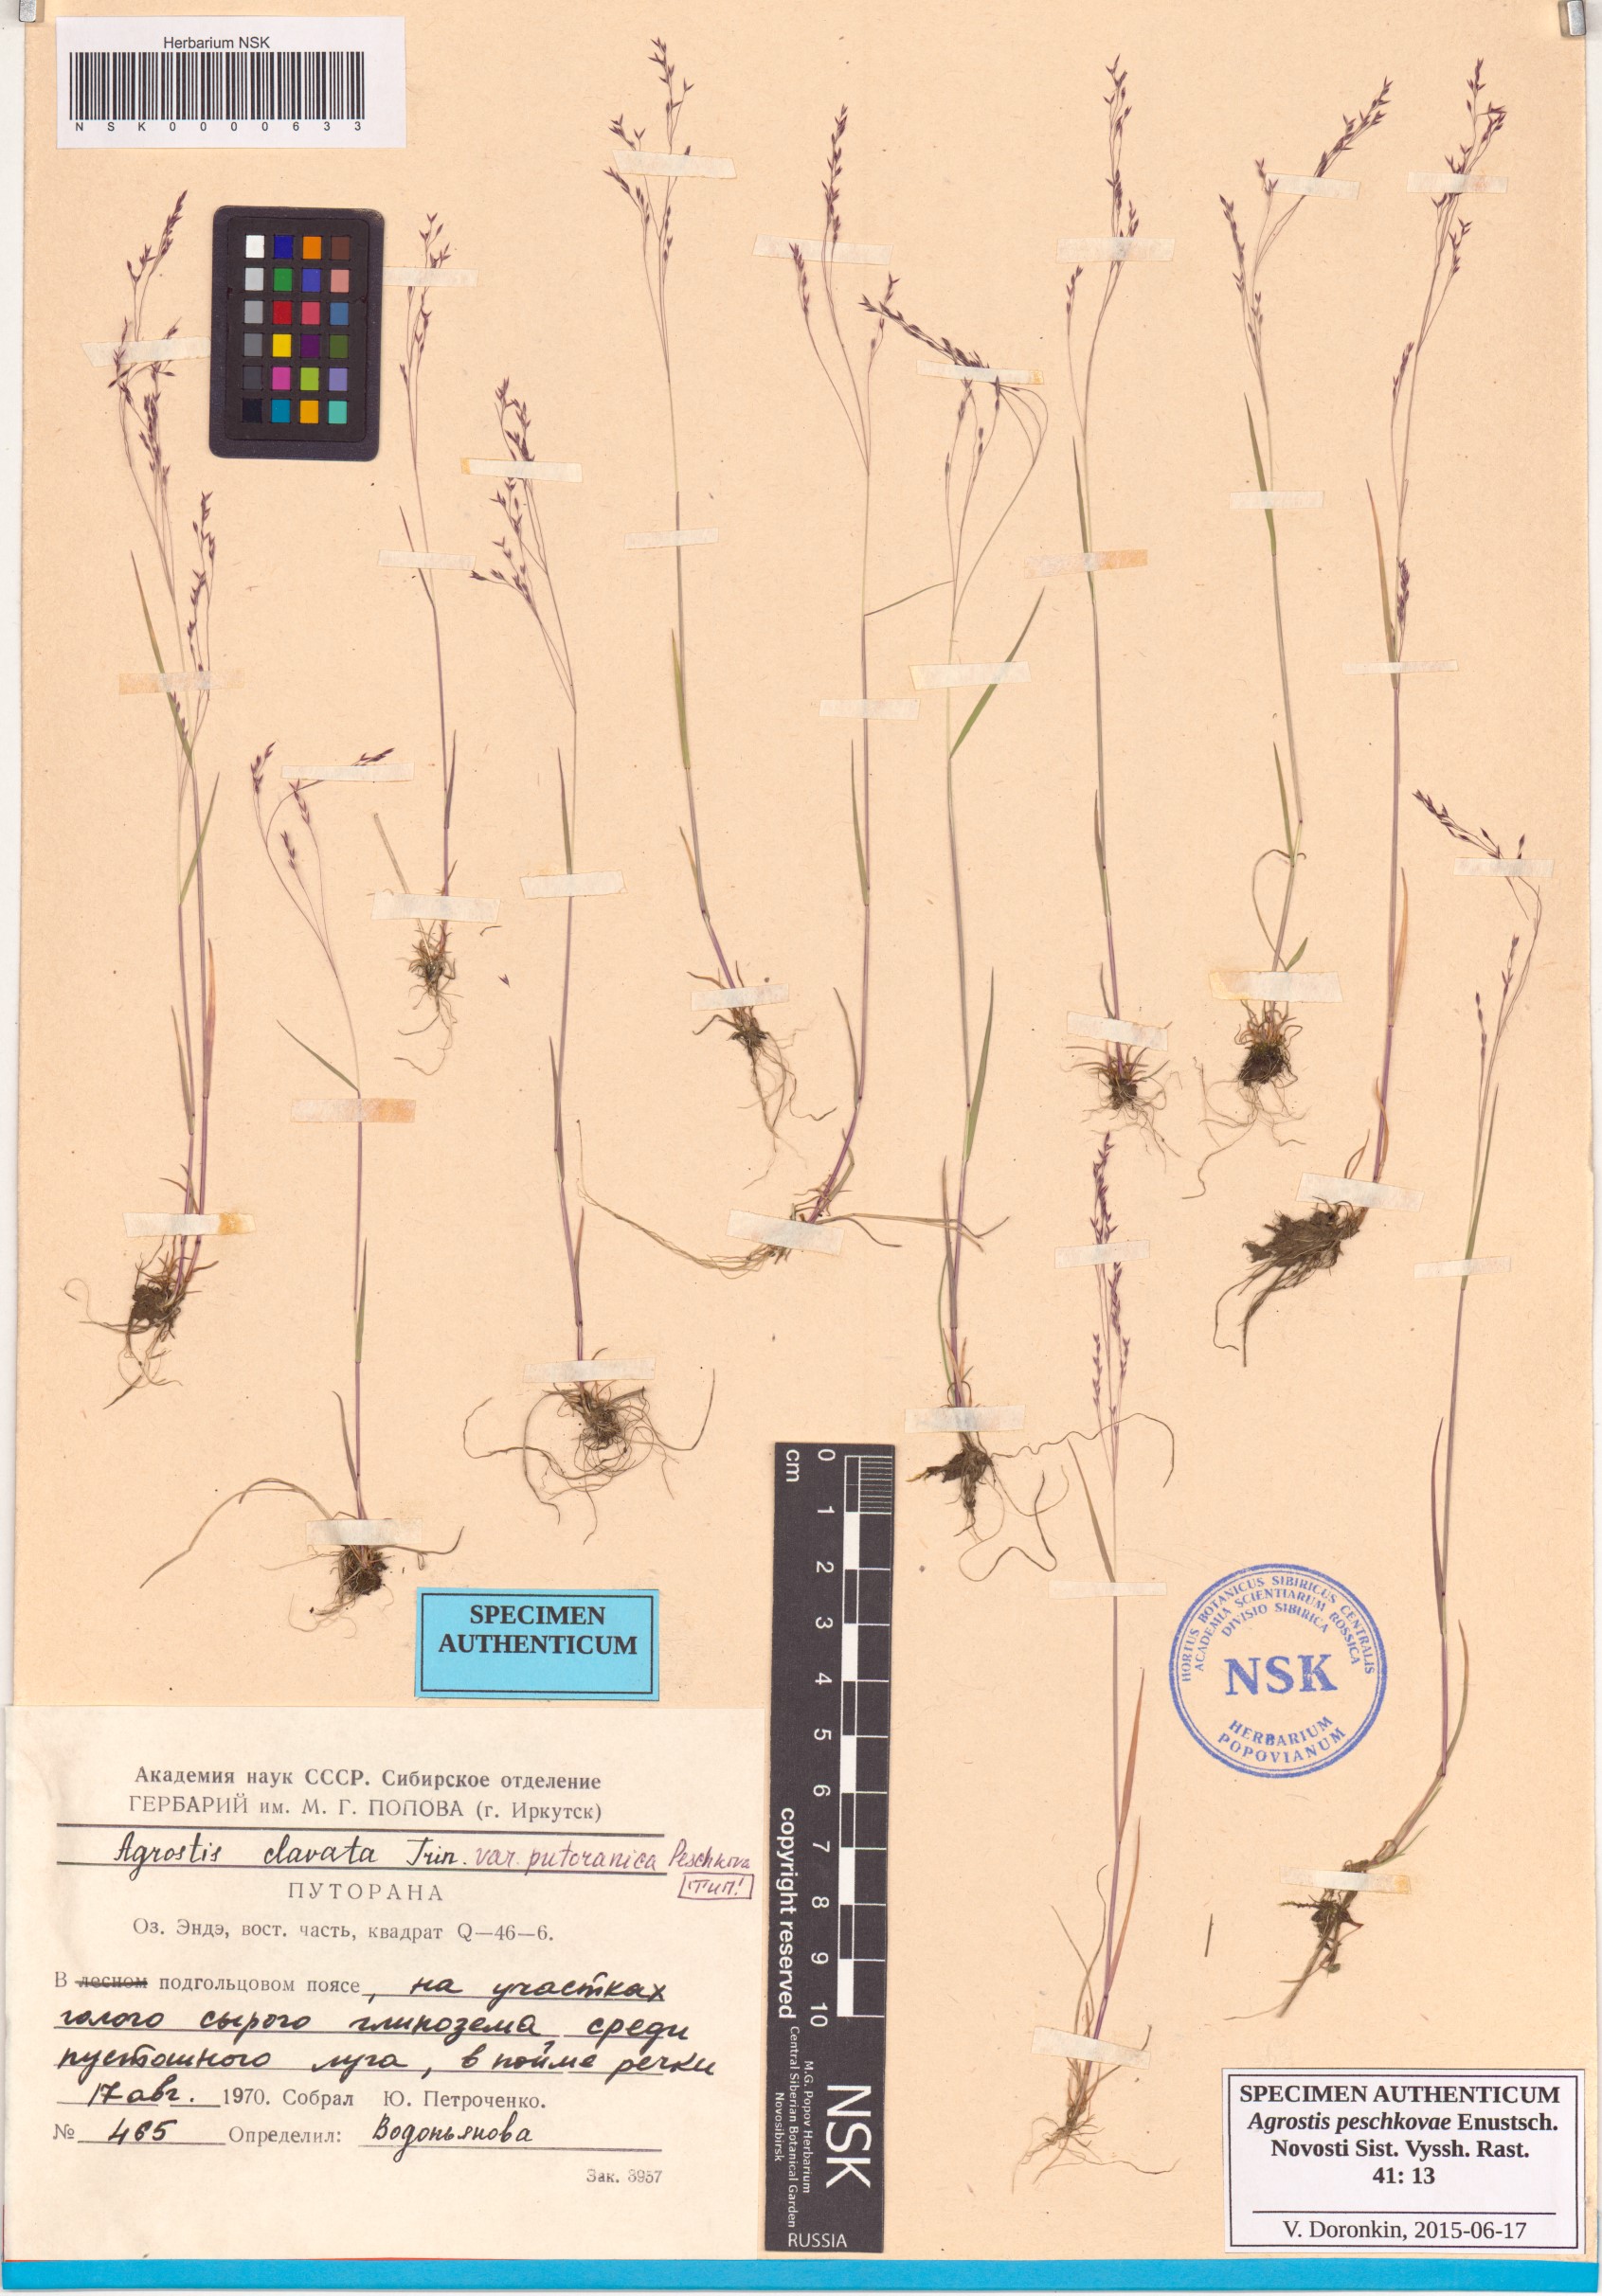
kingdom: Plantae
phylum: Tracheophyta
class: Liliopsida
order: Poales
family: Poaceae
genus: Agrostis
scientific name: Agrostis peschkovae
